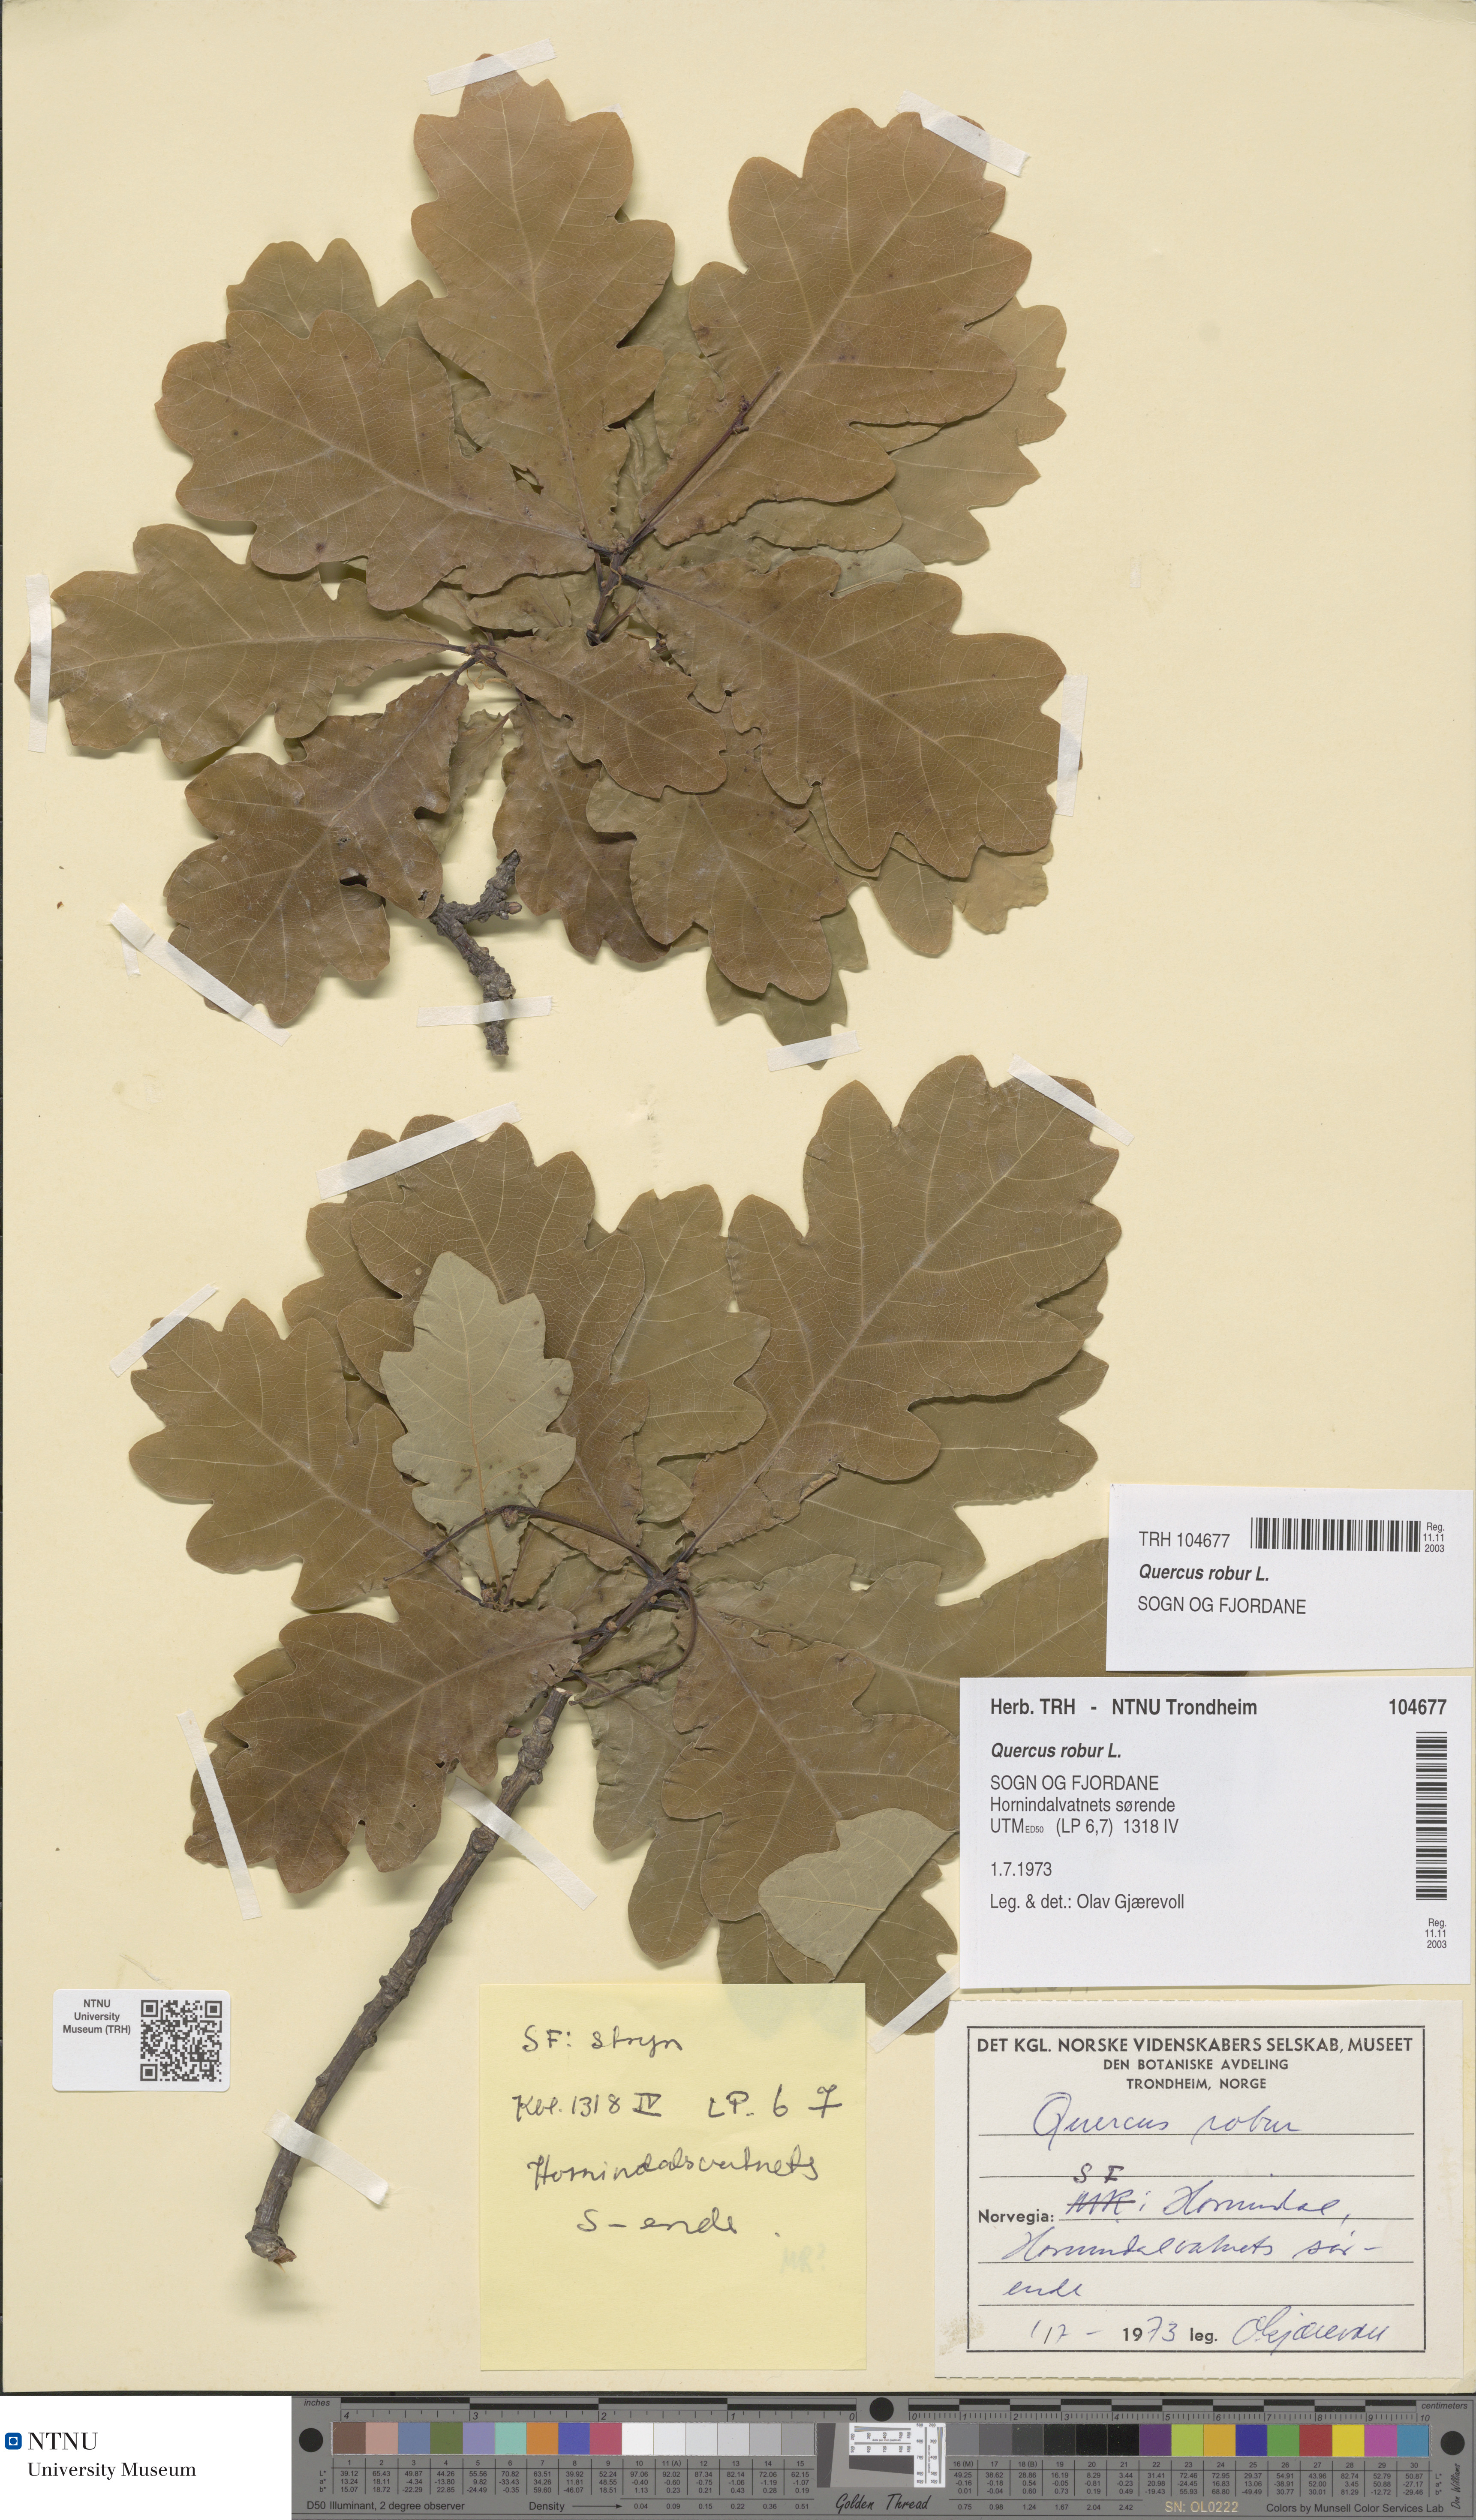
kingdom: Plantae
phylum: Tracheophyta
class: Magnoliopsida
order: Fagales
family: Fagaceae
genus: Quercus
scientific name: Quercus robur
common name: Pedunculate oak
